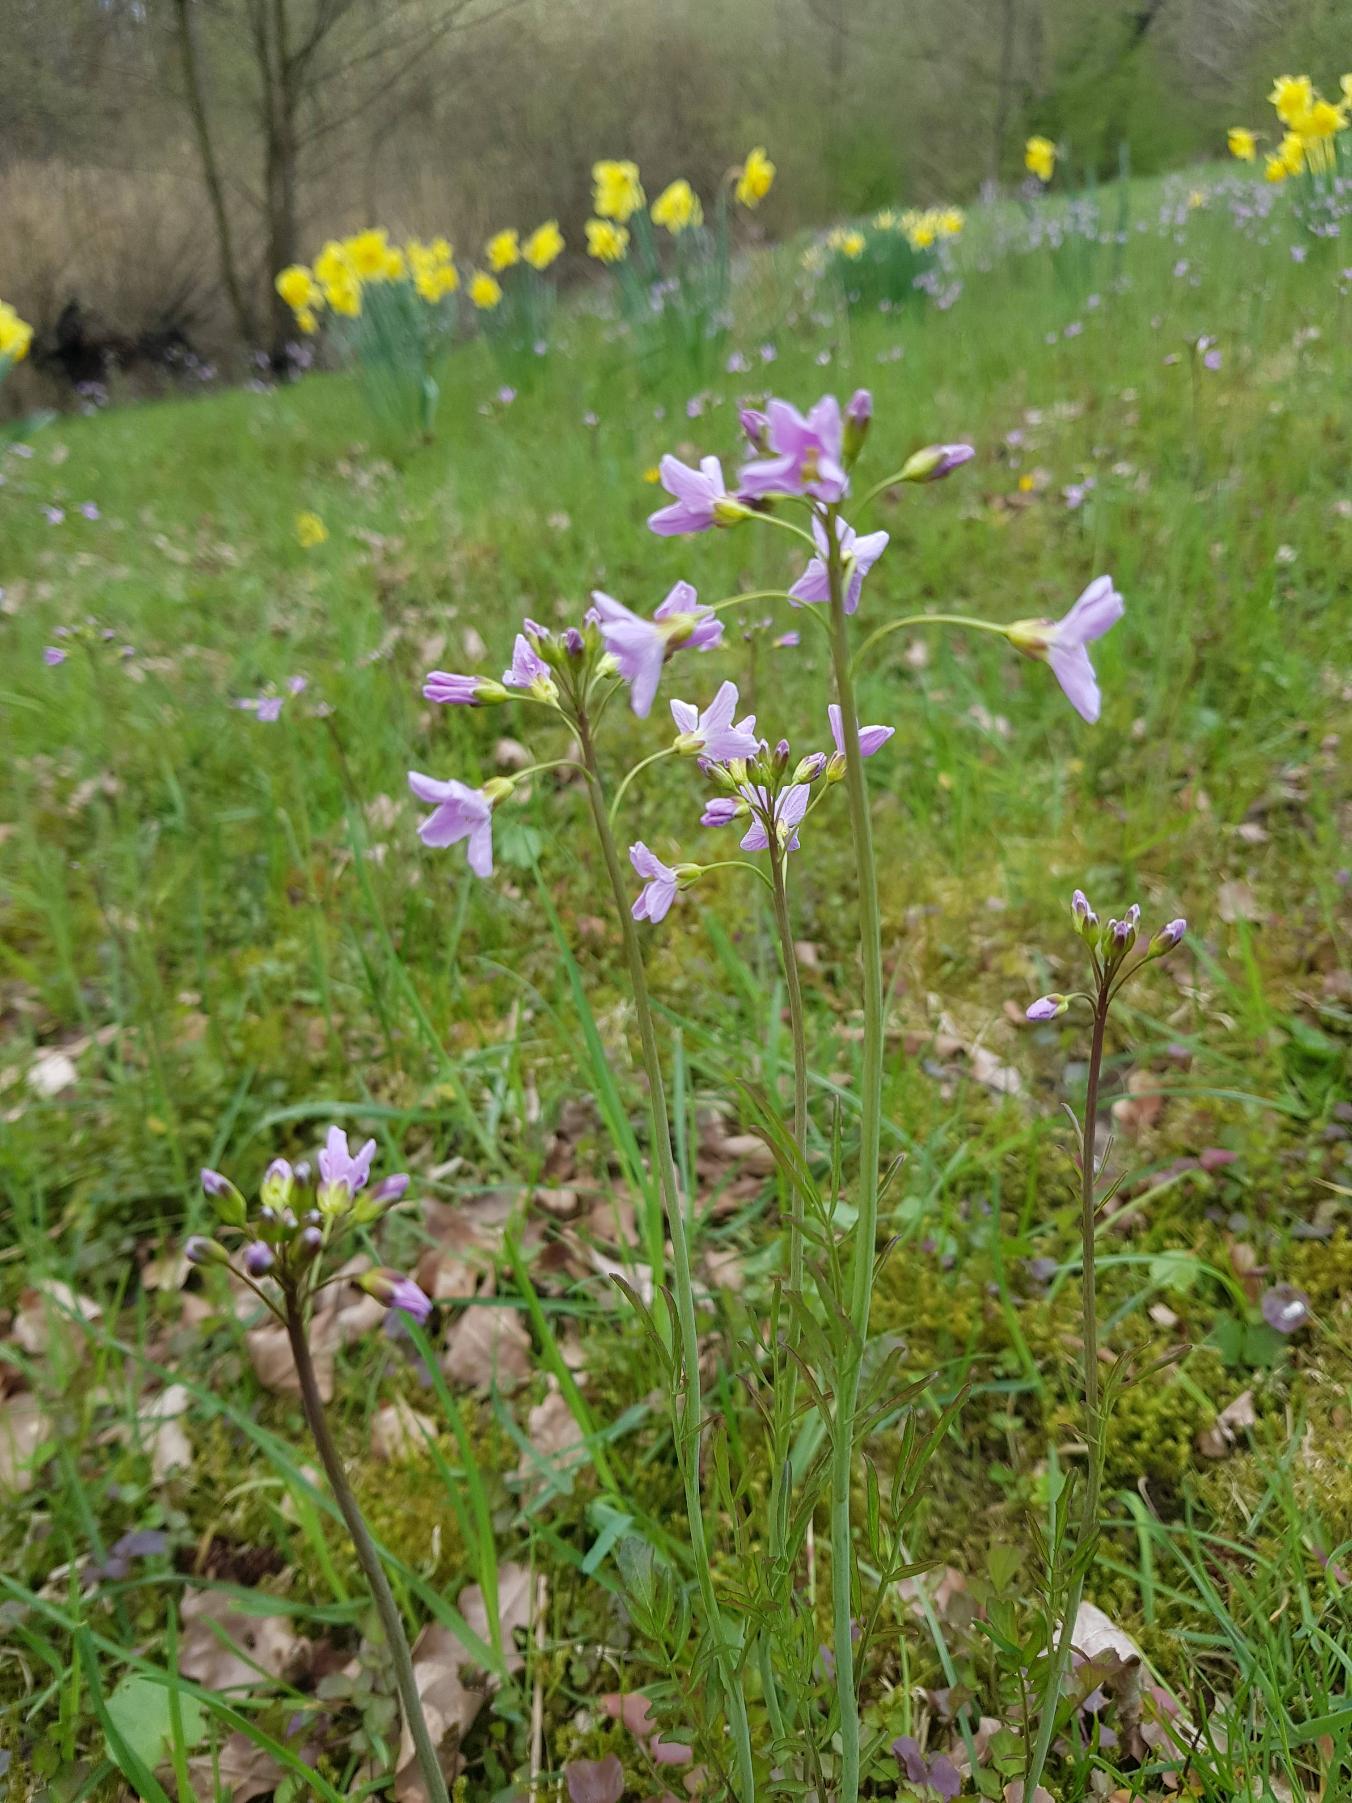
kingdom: Plantae
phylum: Tracheophyta
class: Magnoliopsida
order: Brassicales
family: Brassicaceae
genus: Cardamine
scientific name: Cardamine pratensis
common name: Engkarse
